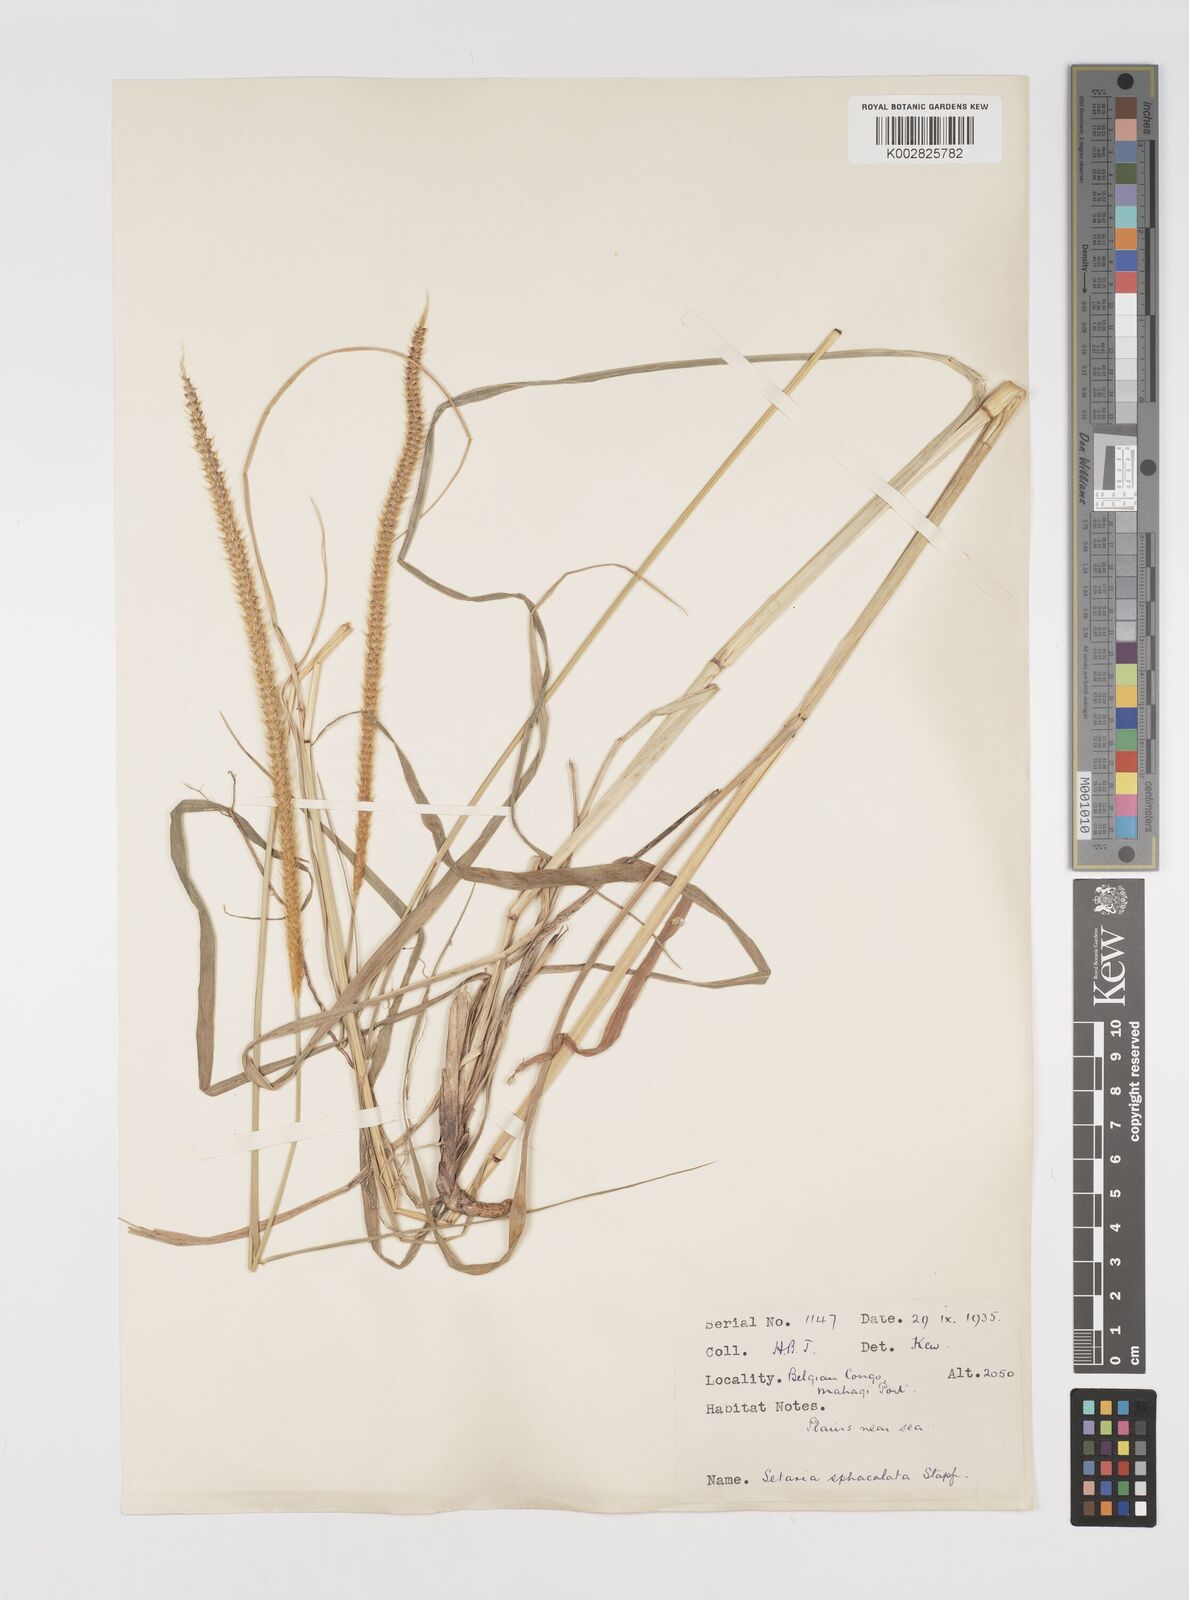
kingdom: Plantae
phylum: Tracheophyta
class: Liliopsida
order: Poales
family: Poaceae
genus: Setaria
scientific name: Setaria sphacelata
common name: African bristlegrass
